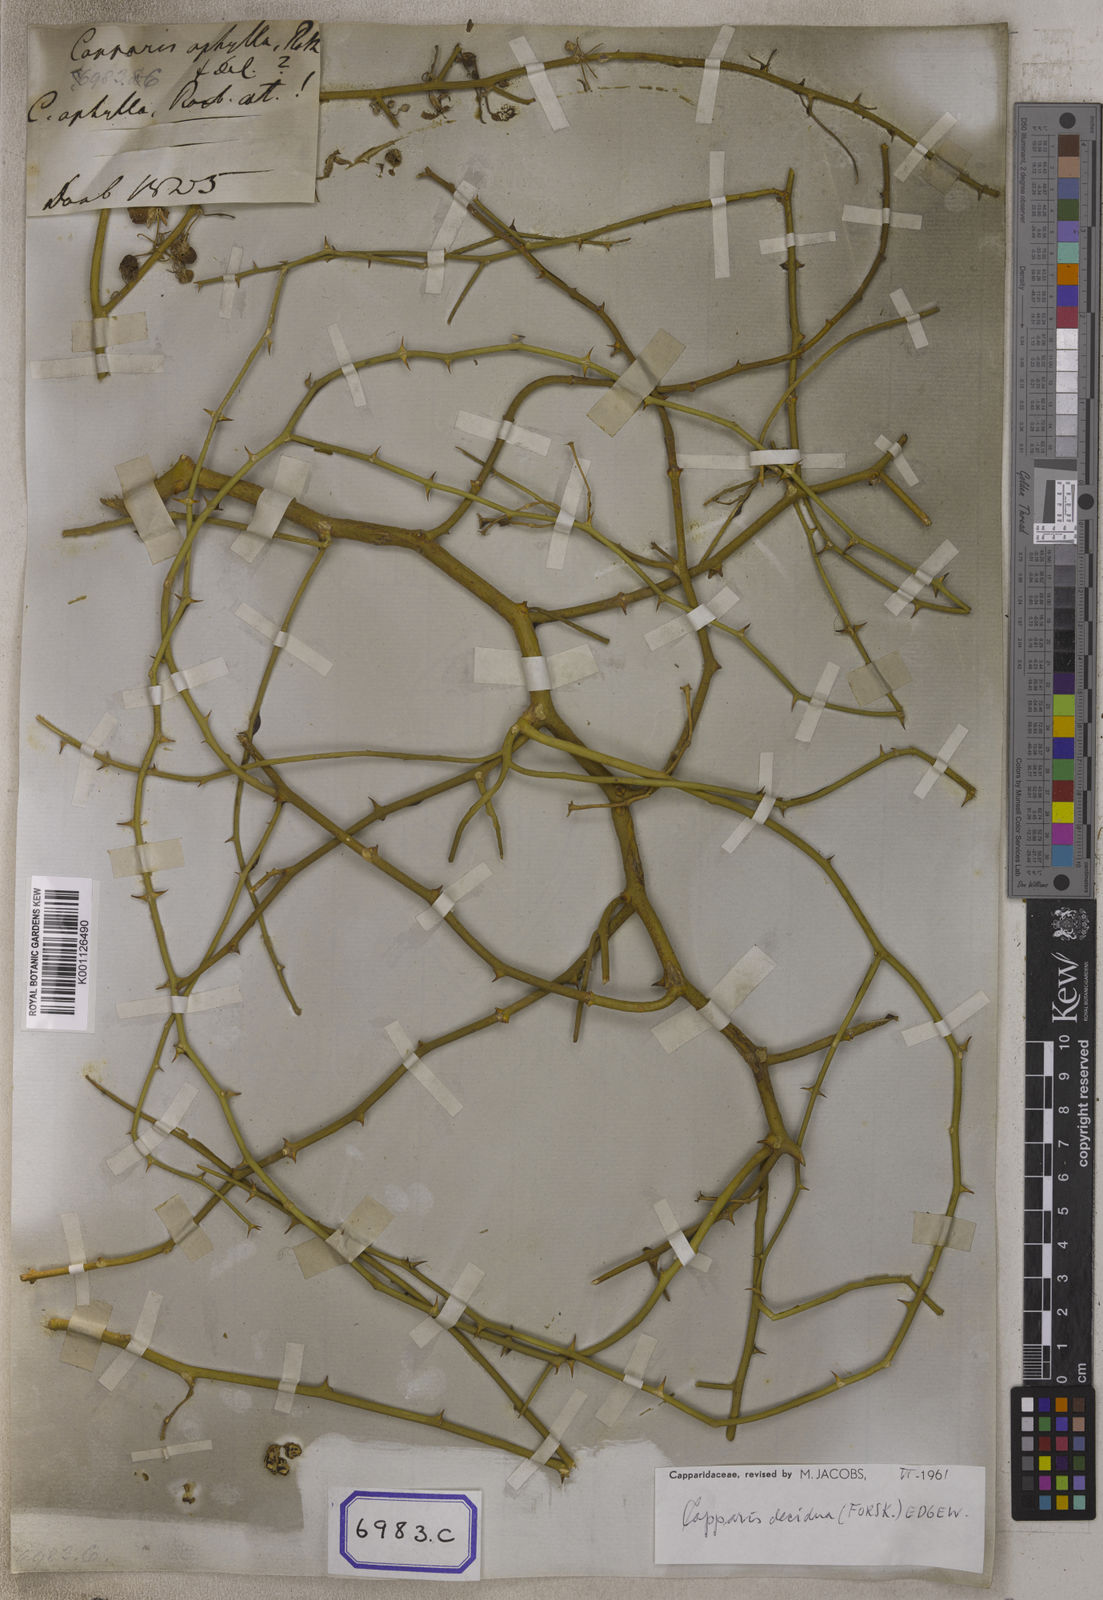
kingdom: Plantae
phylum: Tracheophyta
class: Magnoliopsida
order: Brassicales
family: Capparaceae
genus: Capparis
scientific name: Capparis decidua
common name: Sodada
